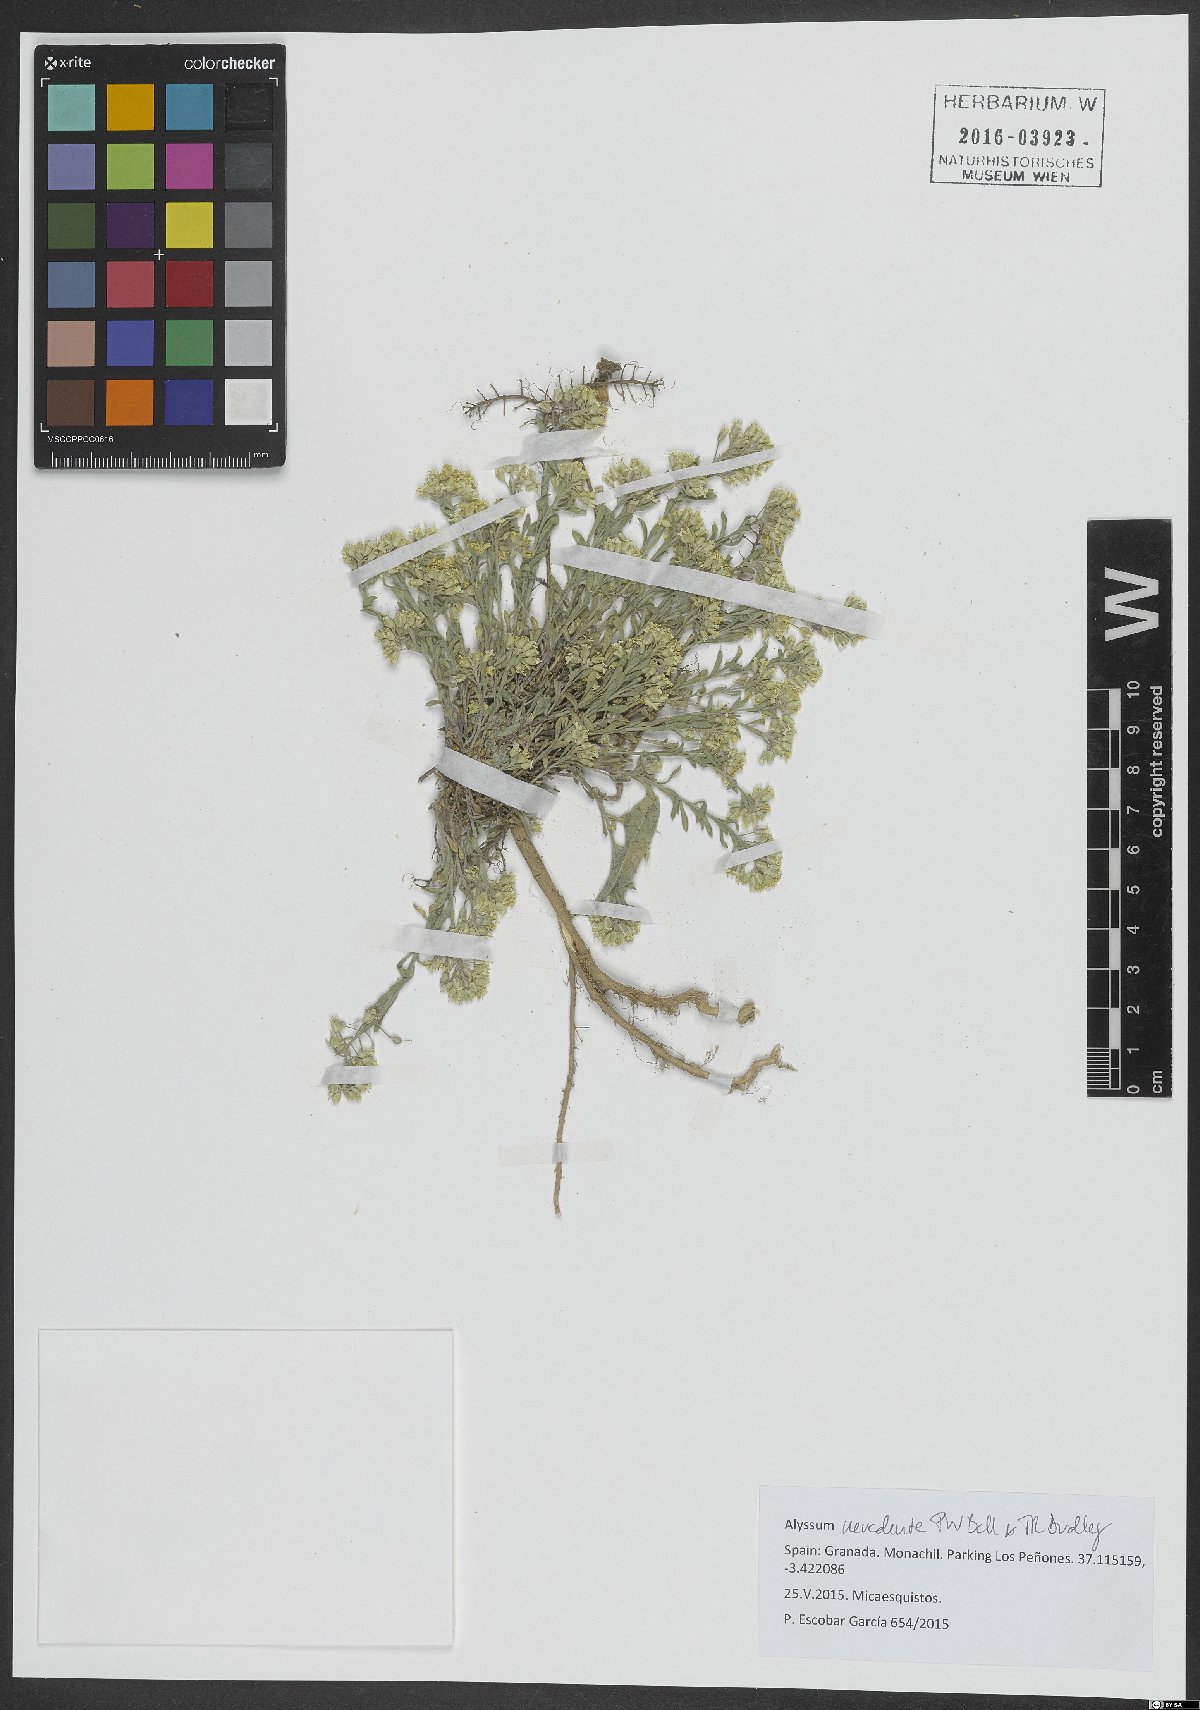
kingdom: Plantae
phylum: Tracheophyta
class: Magnoliopsida
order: Brassicales
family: Brassicaceae
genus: Alyssum
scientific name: Alyssum fastigiatum
